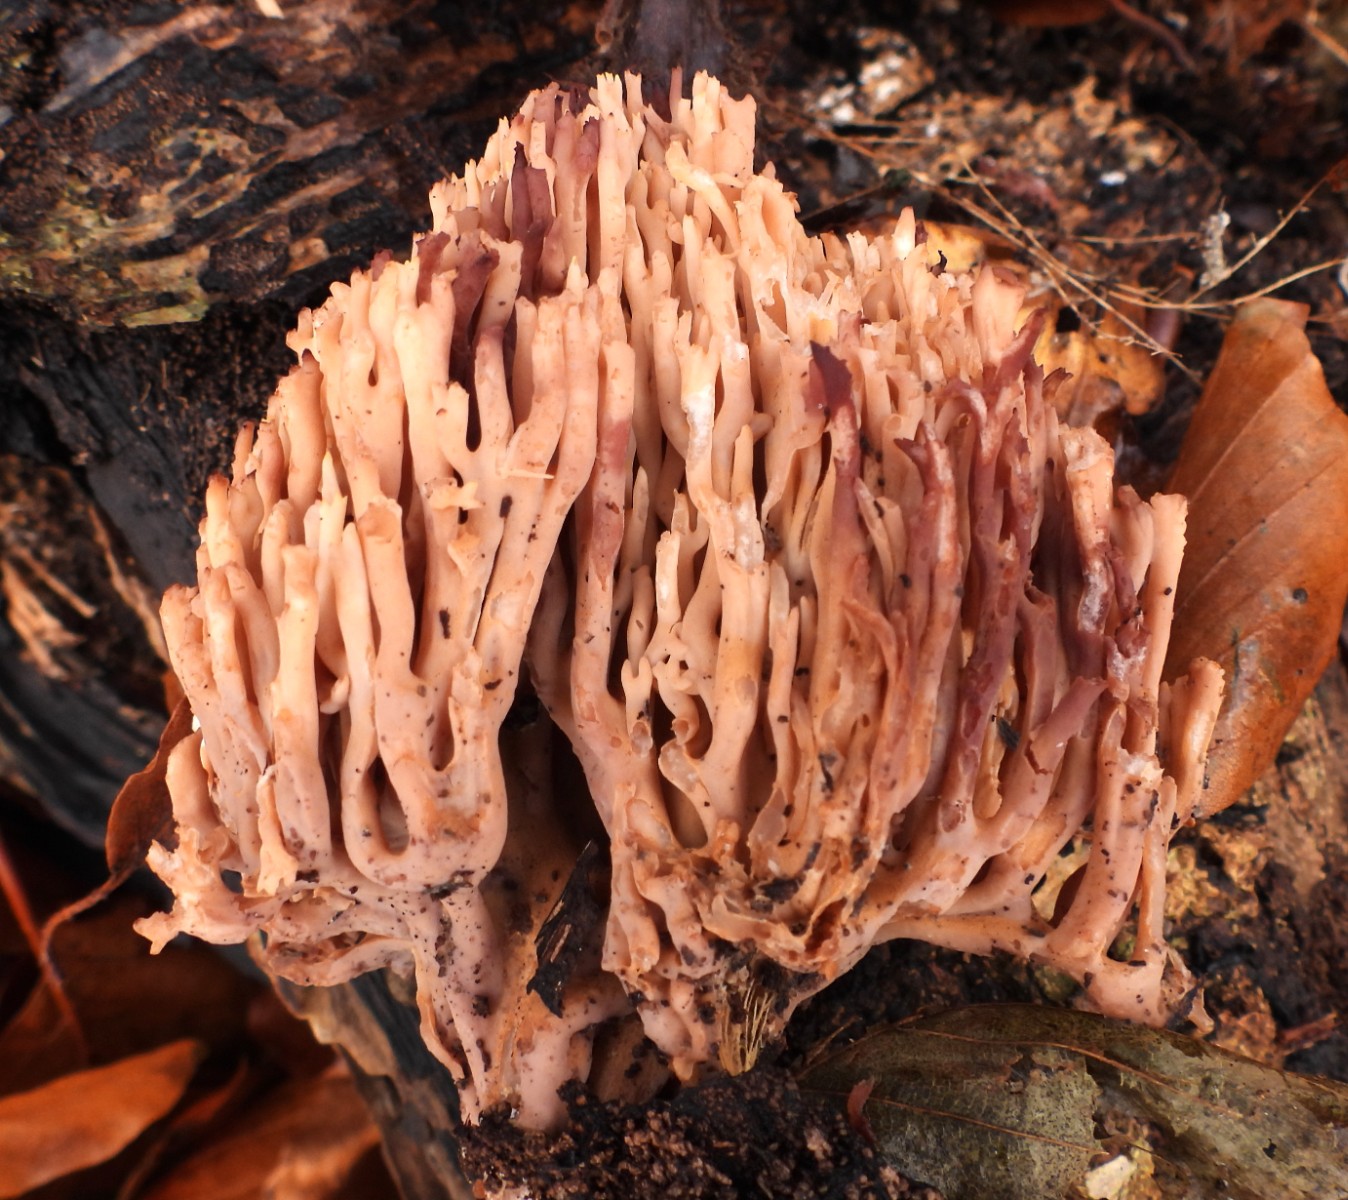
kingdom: Fungi
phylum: Basidiomycota
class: Agaricomycetes
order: Gomphales
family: Gomphaceae
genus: Ramaria
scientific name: Ramaria stricta
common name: rank koralsvamp
